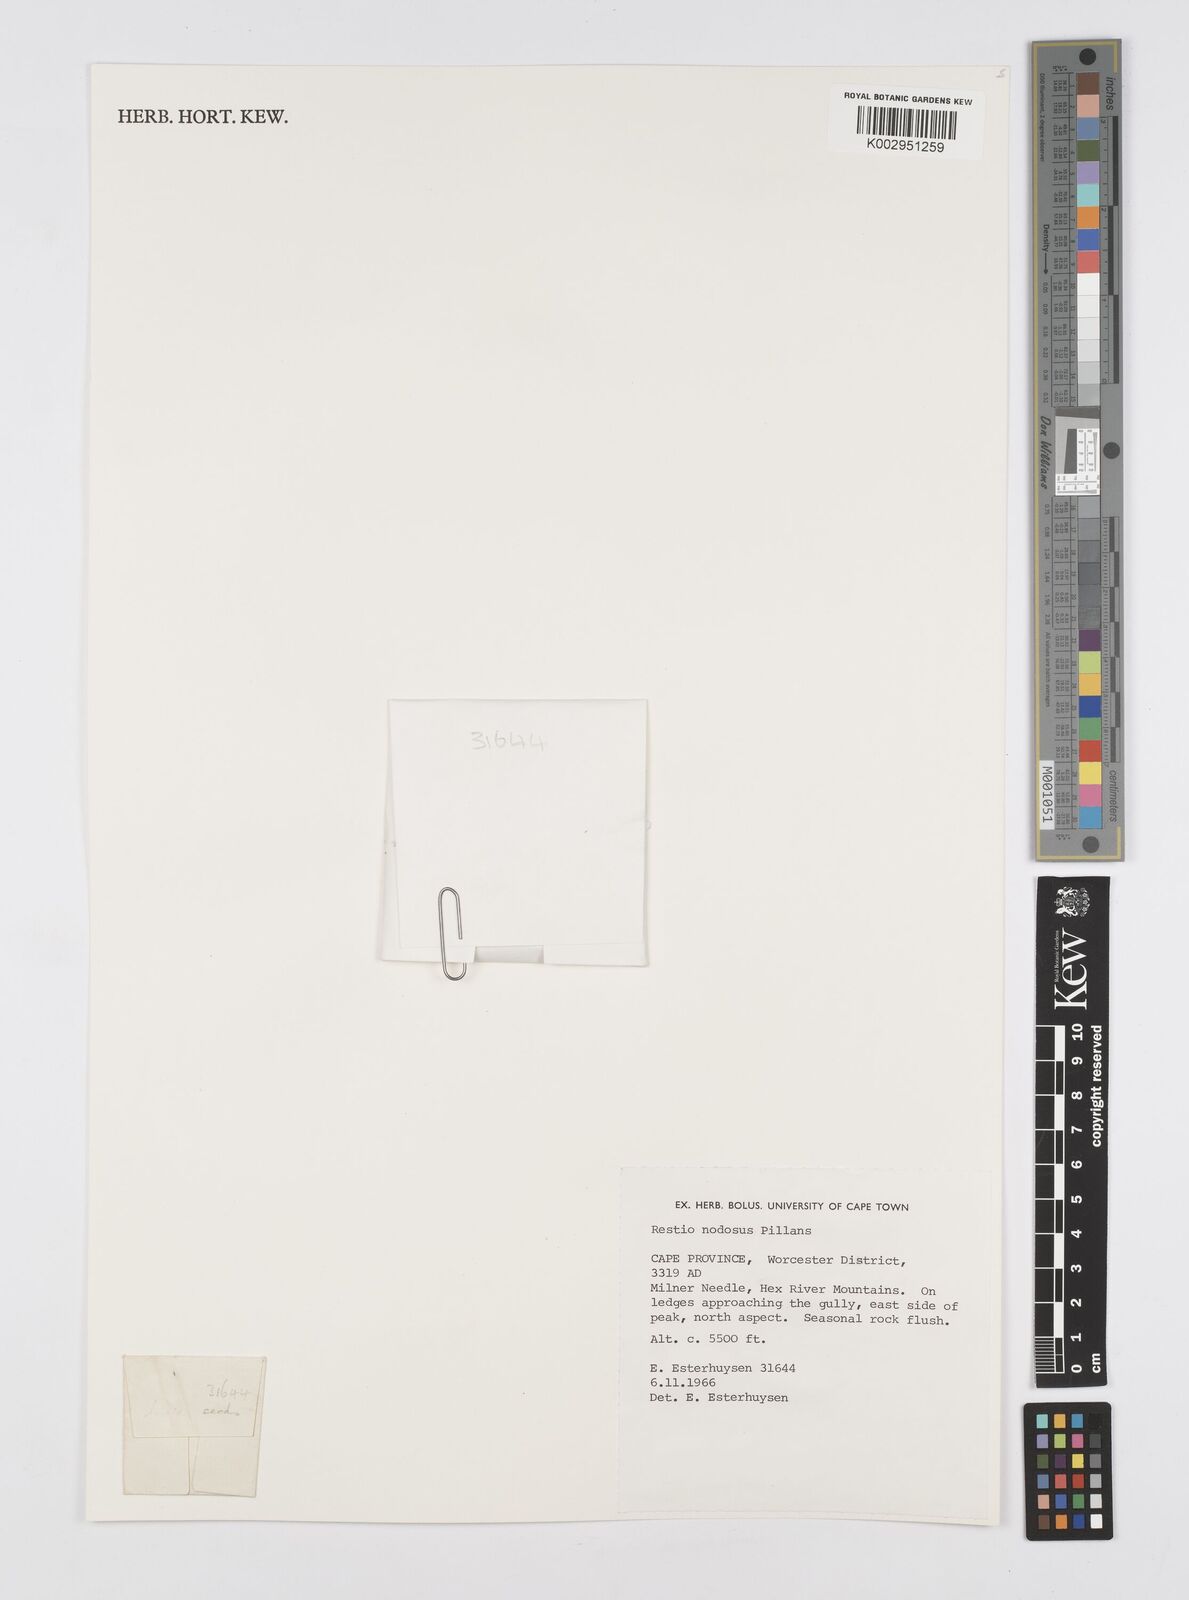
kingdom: Plantae
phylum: Tracheophyta
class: Liliopsida
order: Poales
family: Restionaceae
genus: Restio
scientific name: Restio nodosus
